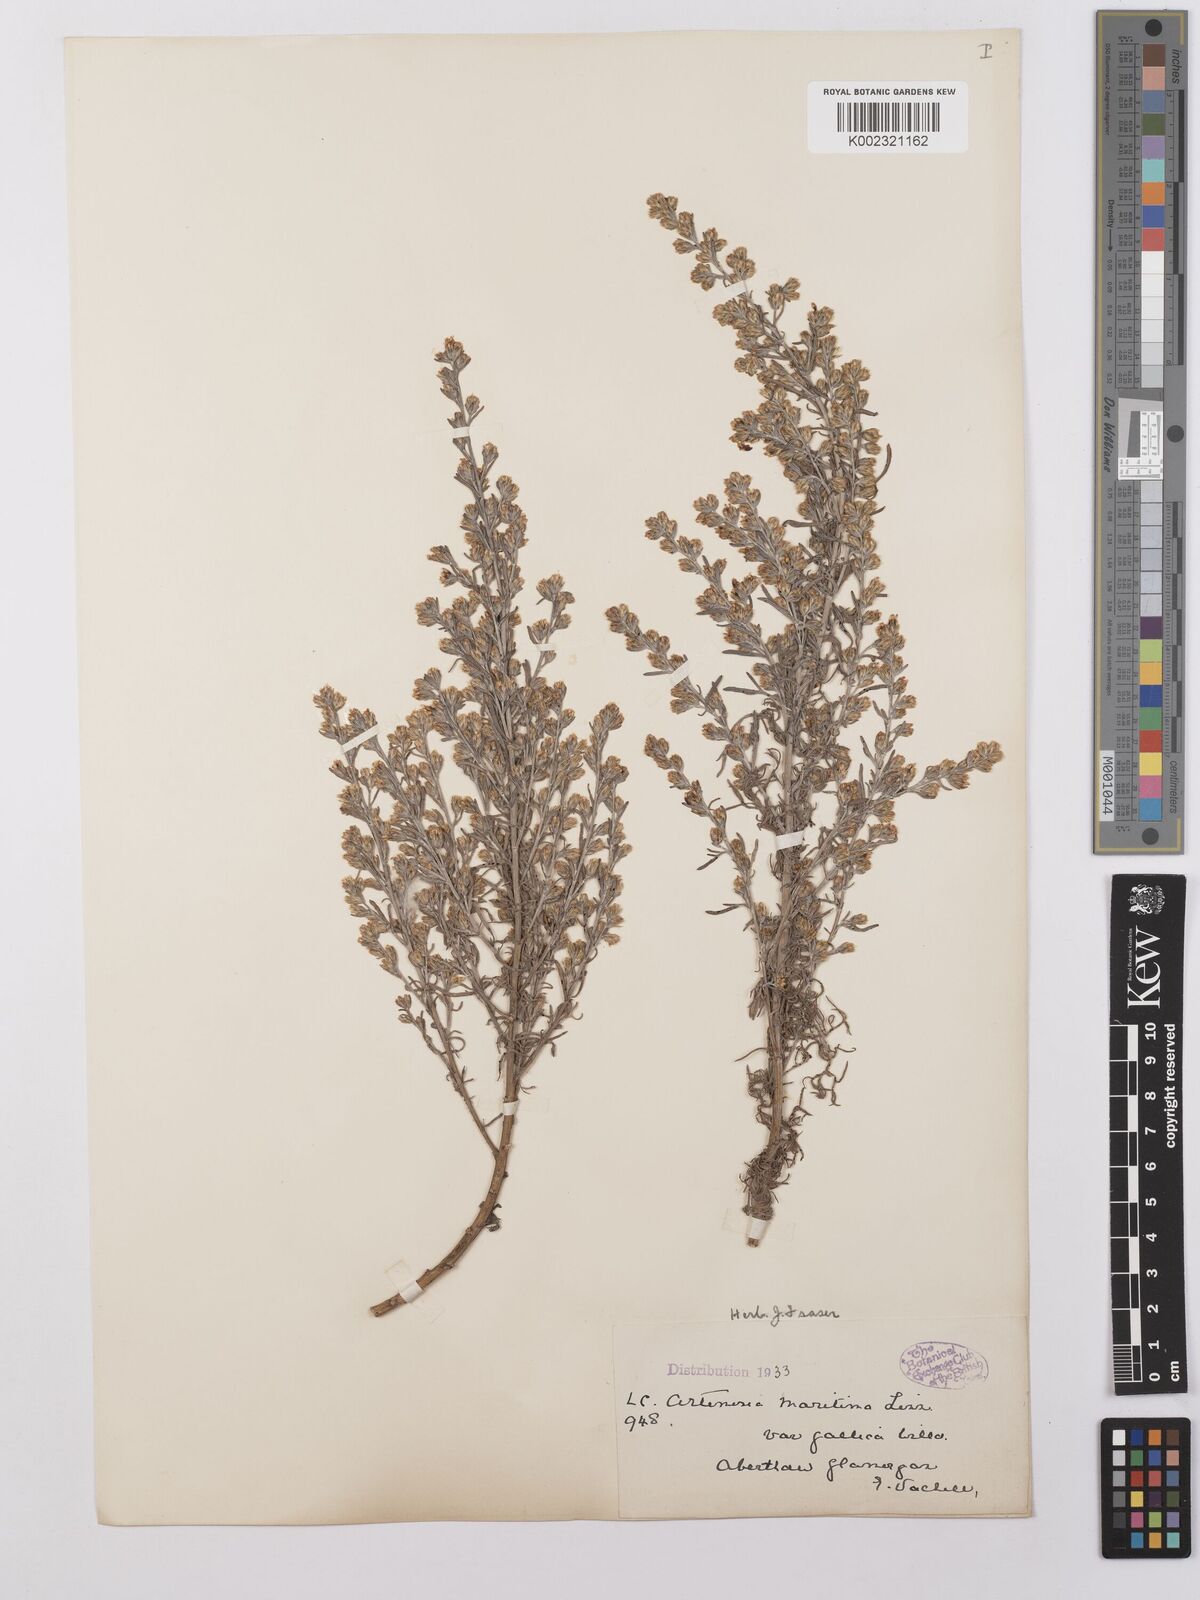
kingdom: Plantae
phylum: Tracheophyta
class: Magnoliopsida
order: Asterales
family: Asteraceae
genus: Artemisia
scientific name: Artemisia maritima
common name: Wormseed
